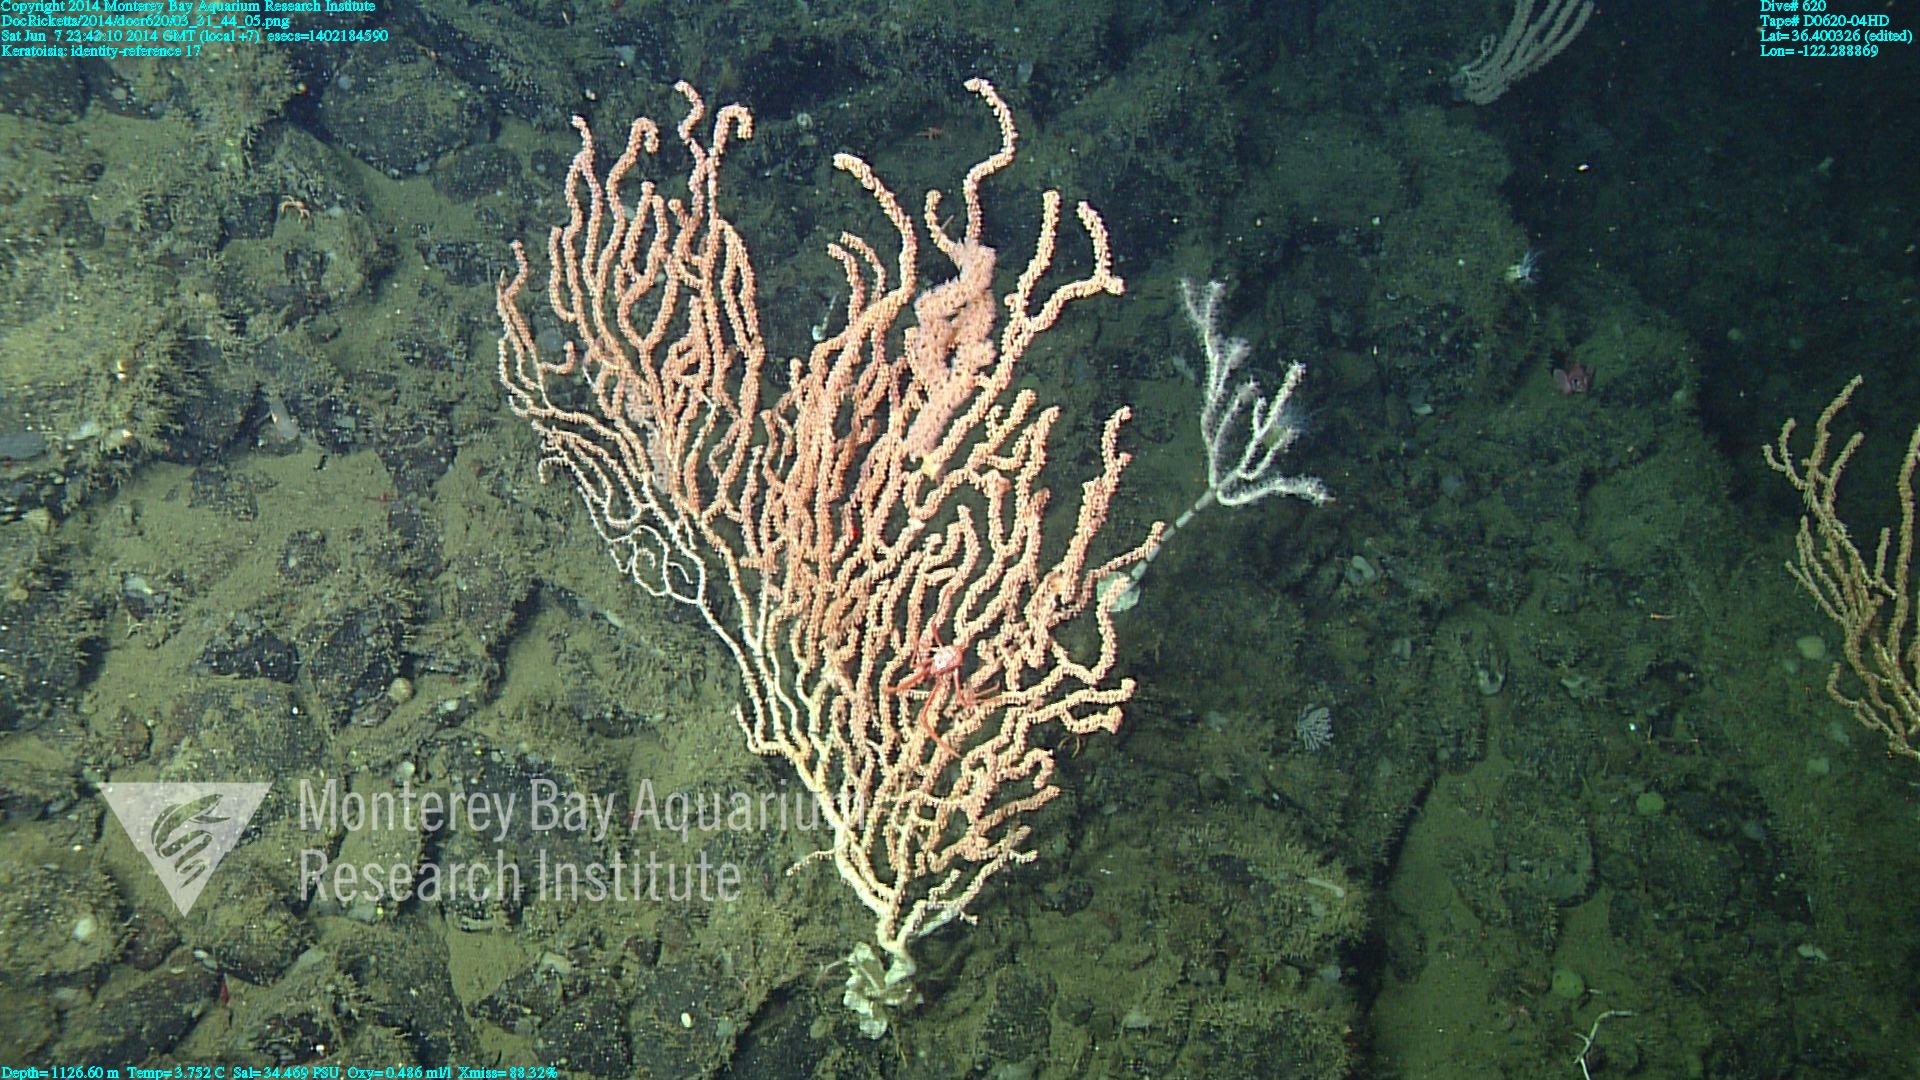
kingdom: Animalia
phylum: Cnidaria
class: Anthozoa
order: Scleralcyonacea
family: Keratoisididae
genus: Keratoisis
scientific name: Keratoisis
